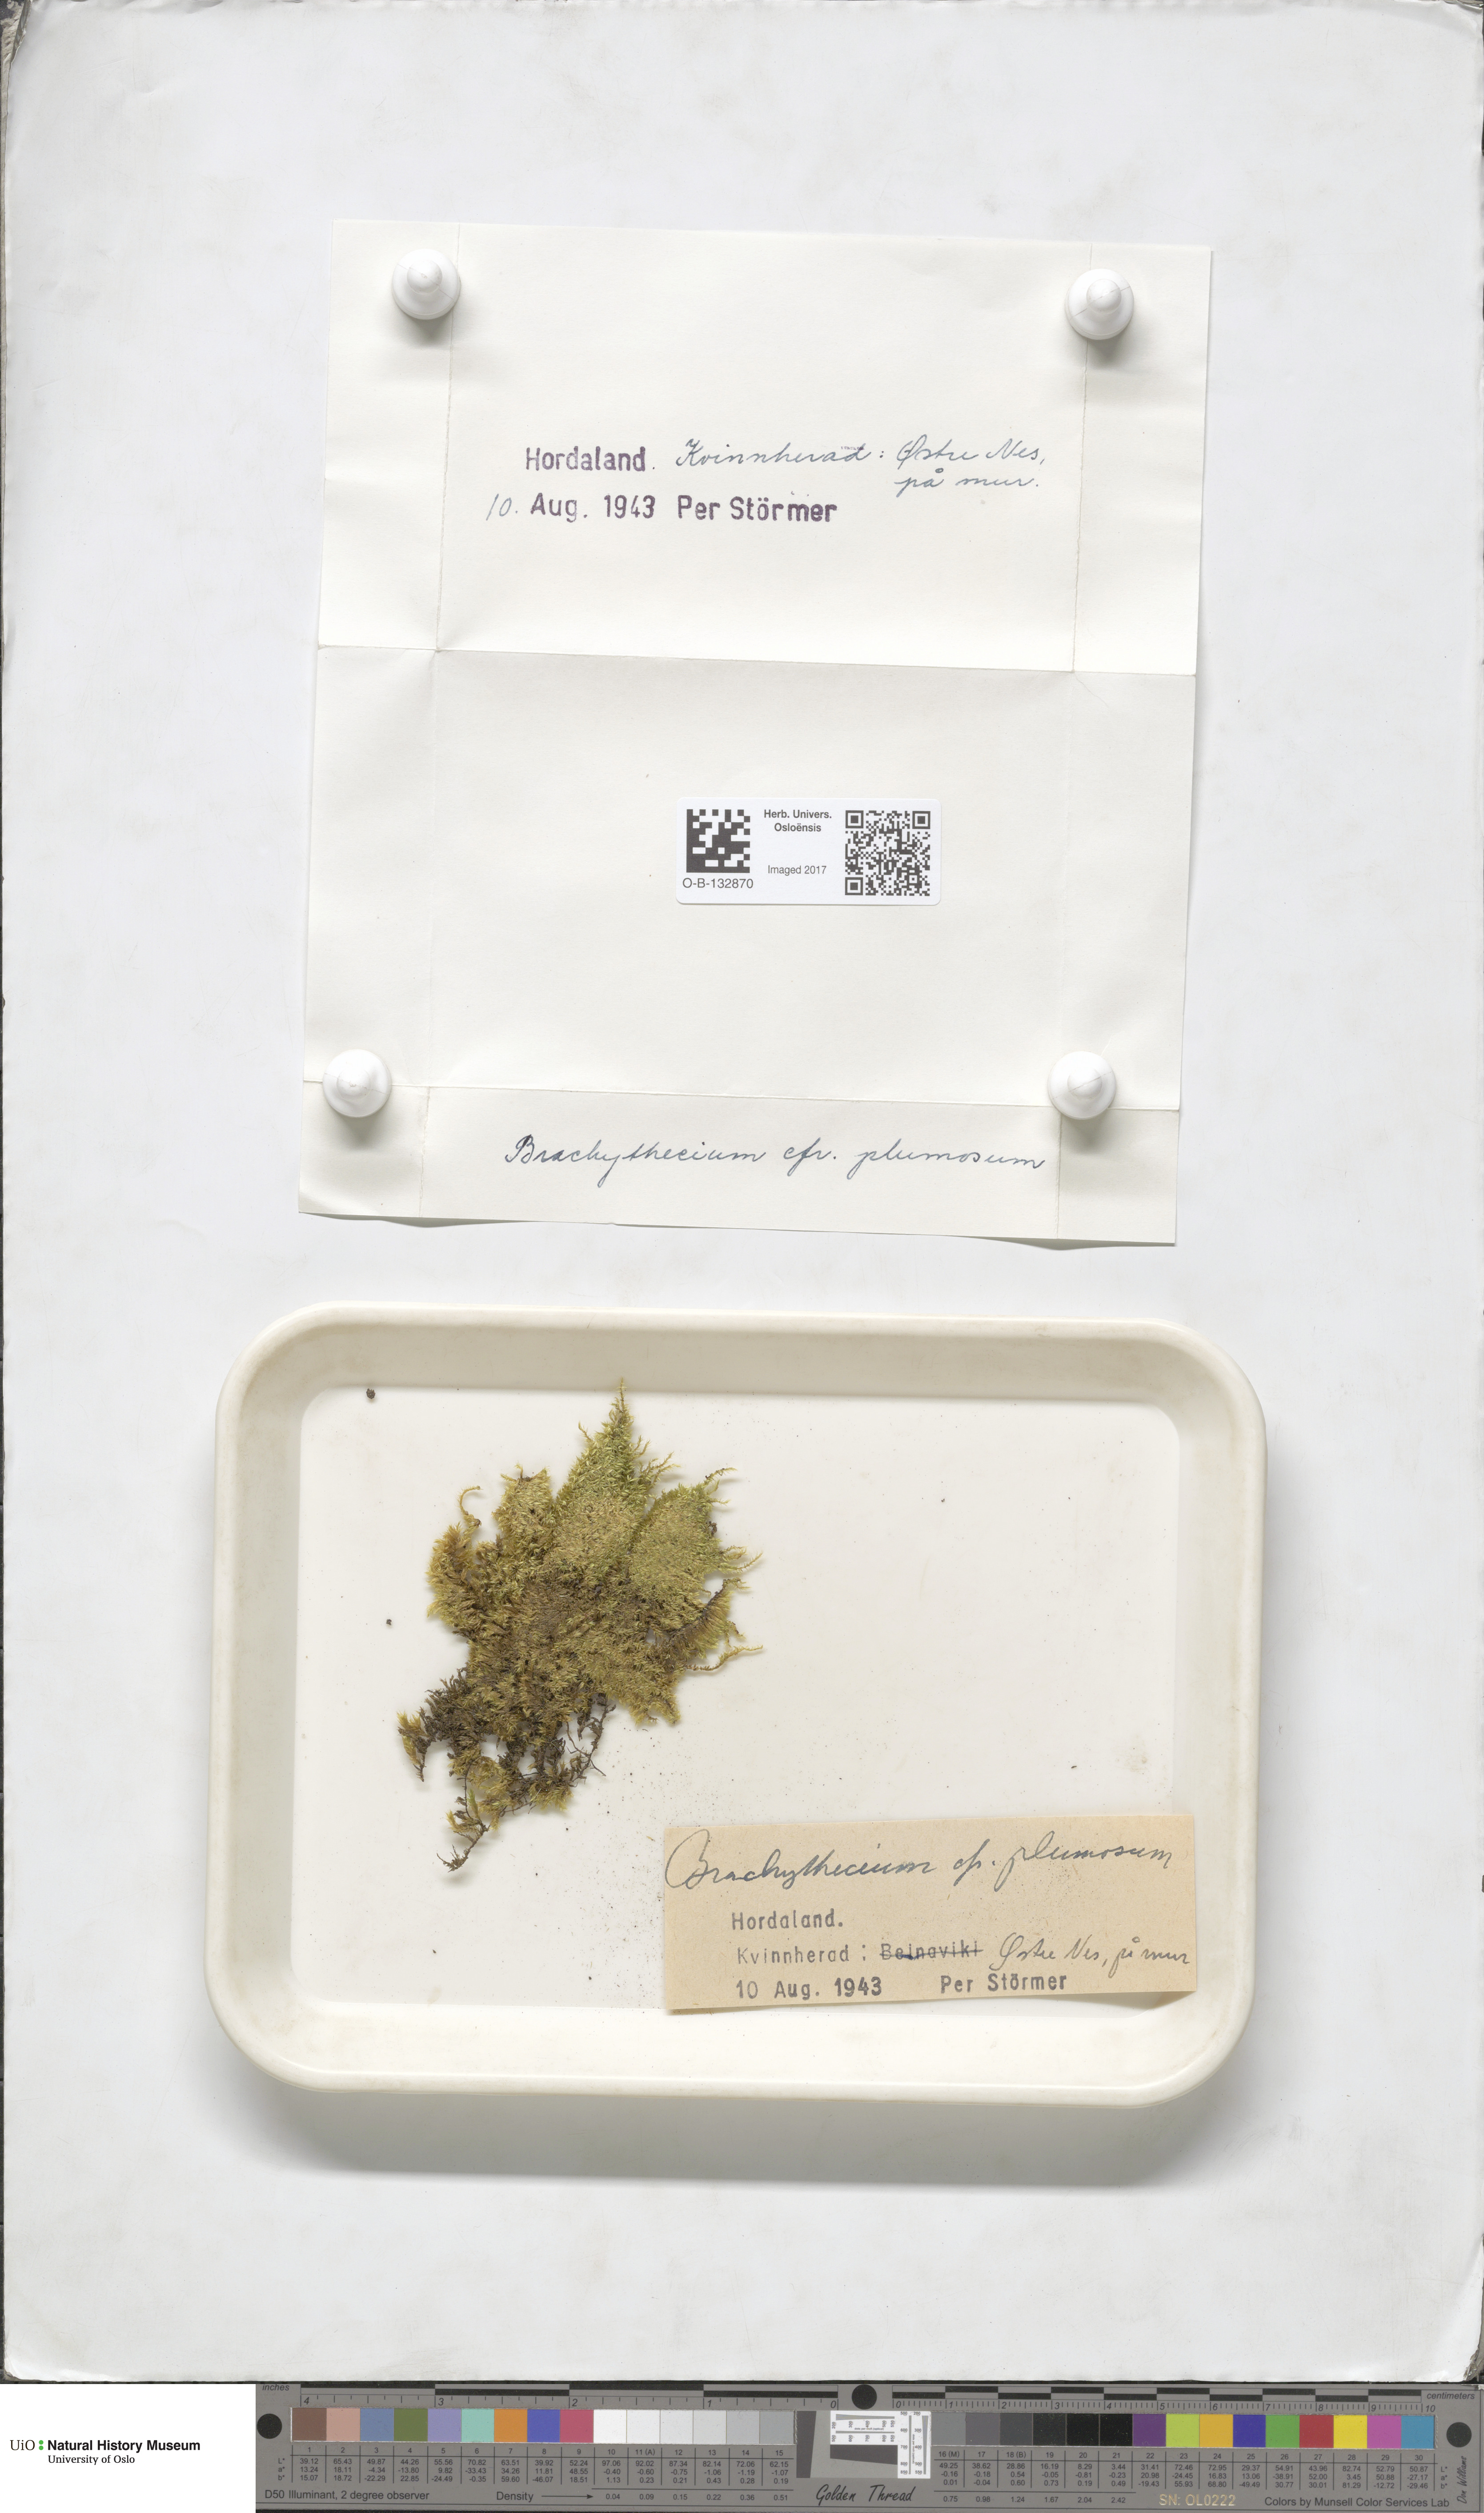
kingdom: Plantae
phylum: Bryophyta
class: Bryopsida
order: Hypnales
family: Brachytheciaceae
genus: Sciuro-hypnum
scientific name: Sciuro-hypnum plumosum
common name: Rusty feather-moss
